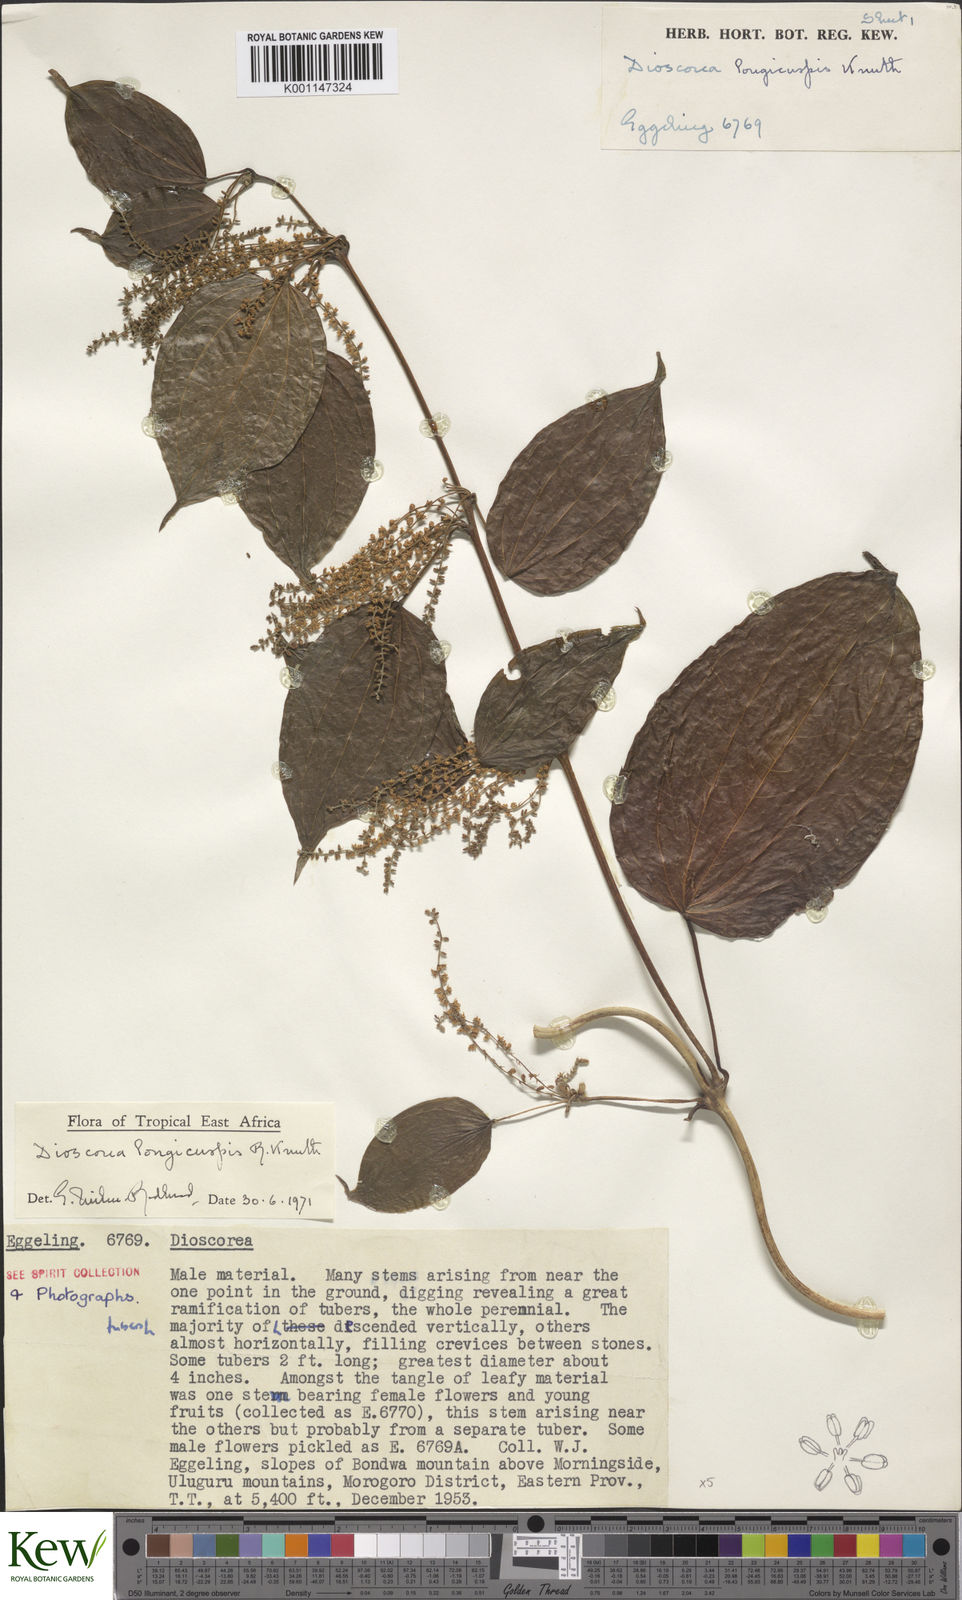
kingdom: Plantae
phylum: Tracheophyta
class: Liliopsida
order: Dioscoreales
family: Dioscoreaceae
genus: Dioscorea
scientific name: Dioscorea longicuspis
